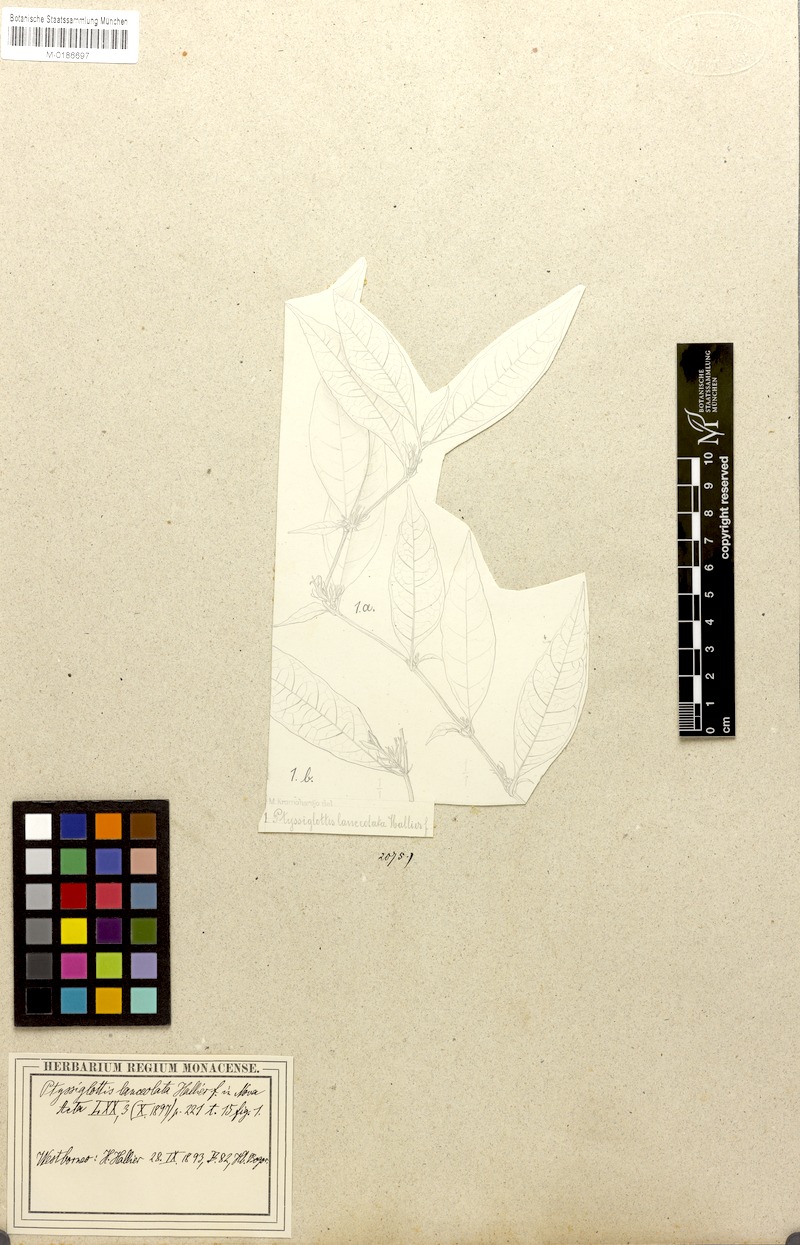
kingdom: Plantae
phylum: Tracheophyta
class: Magnoliopsida
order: Lamiales
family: Acanthaceae
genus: Ptyssiglottis
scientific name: Ptyssiglottis lanceolata
